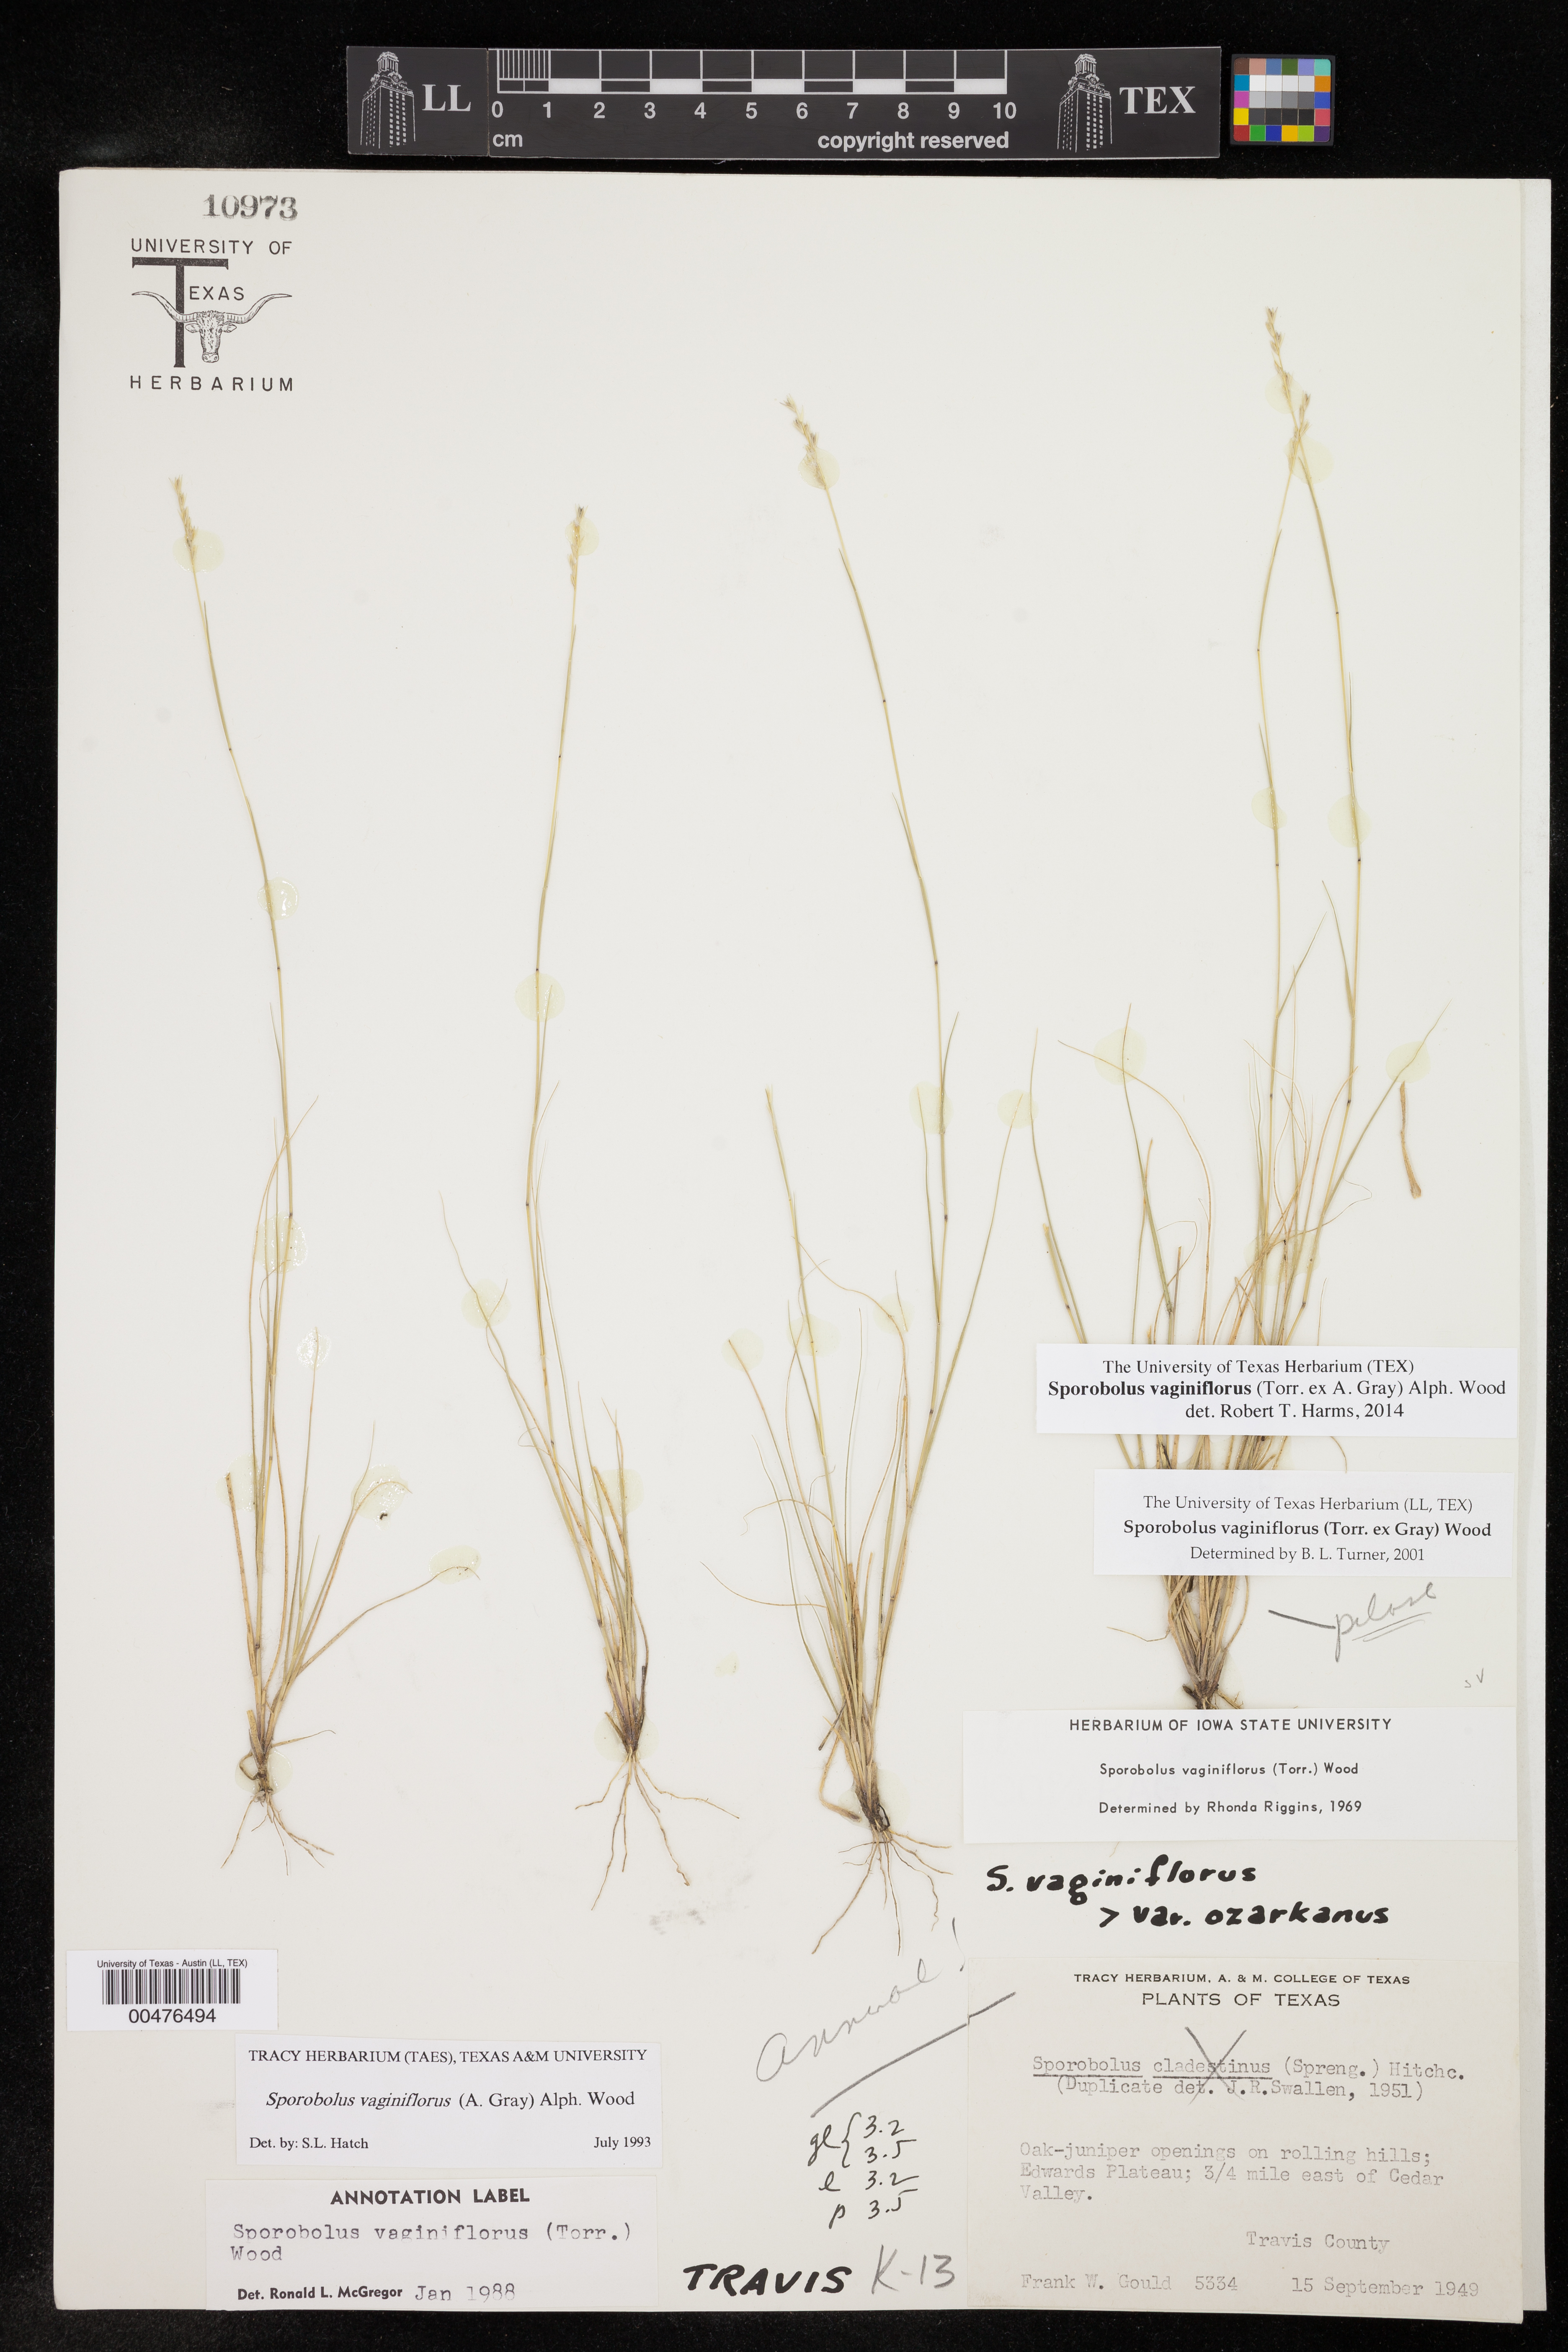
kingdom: Plantae
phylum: Tracheophyta
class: Liliopsida
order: Poales
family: Poaceae
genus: Sporobolus
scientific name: Sporobolus vaginiflorus
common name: Poverty dropseed
